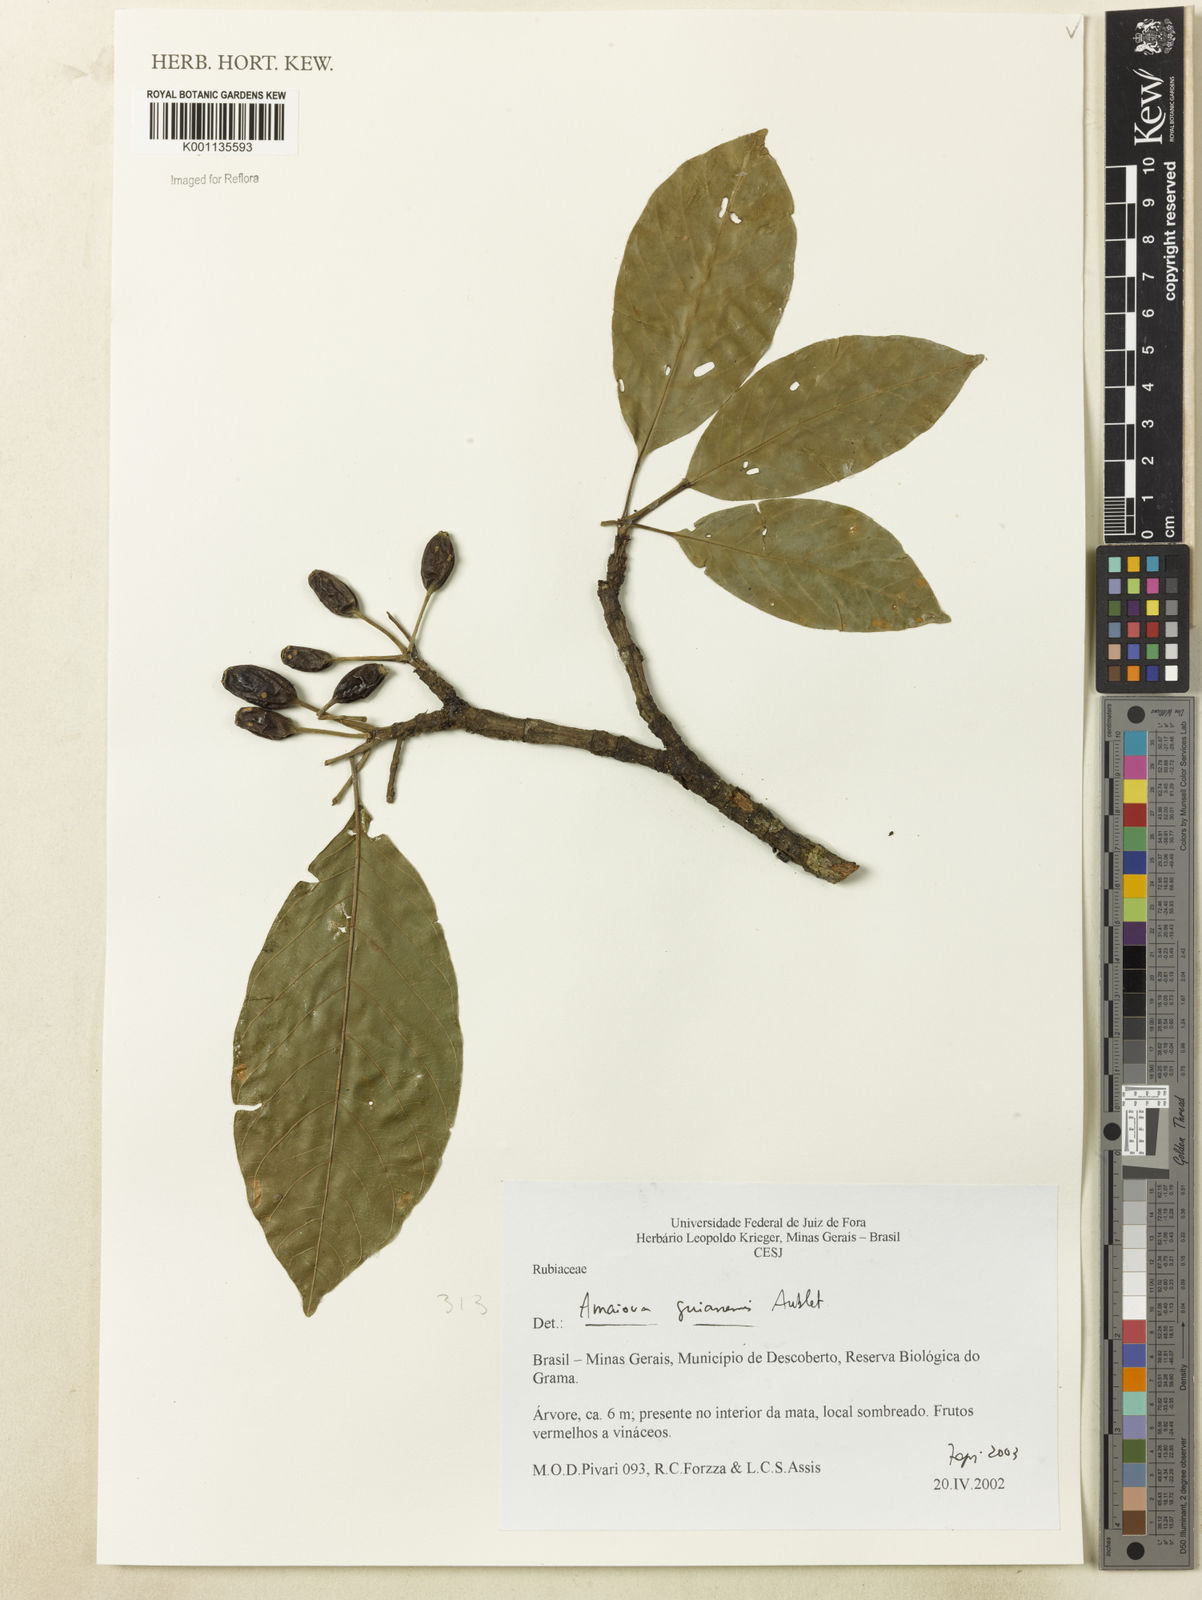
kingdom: Plantae
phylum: Tracheophyta
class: Magnoliopsida
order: Gentianales
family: Rubiaceae
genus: Amaioua
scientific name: Amaioua intermedia
